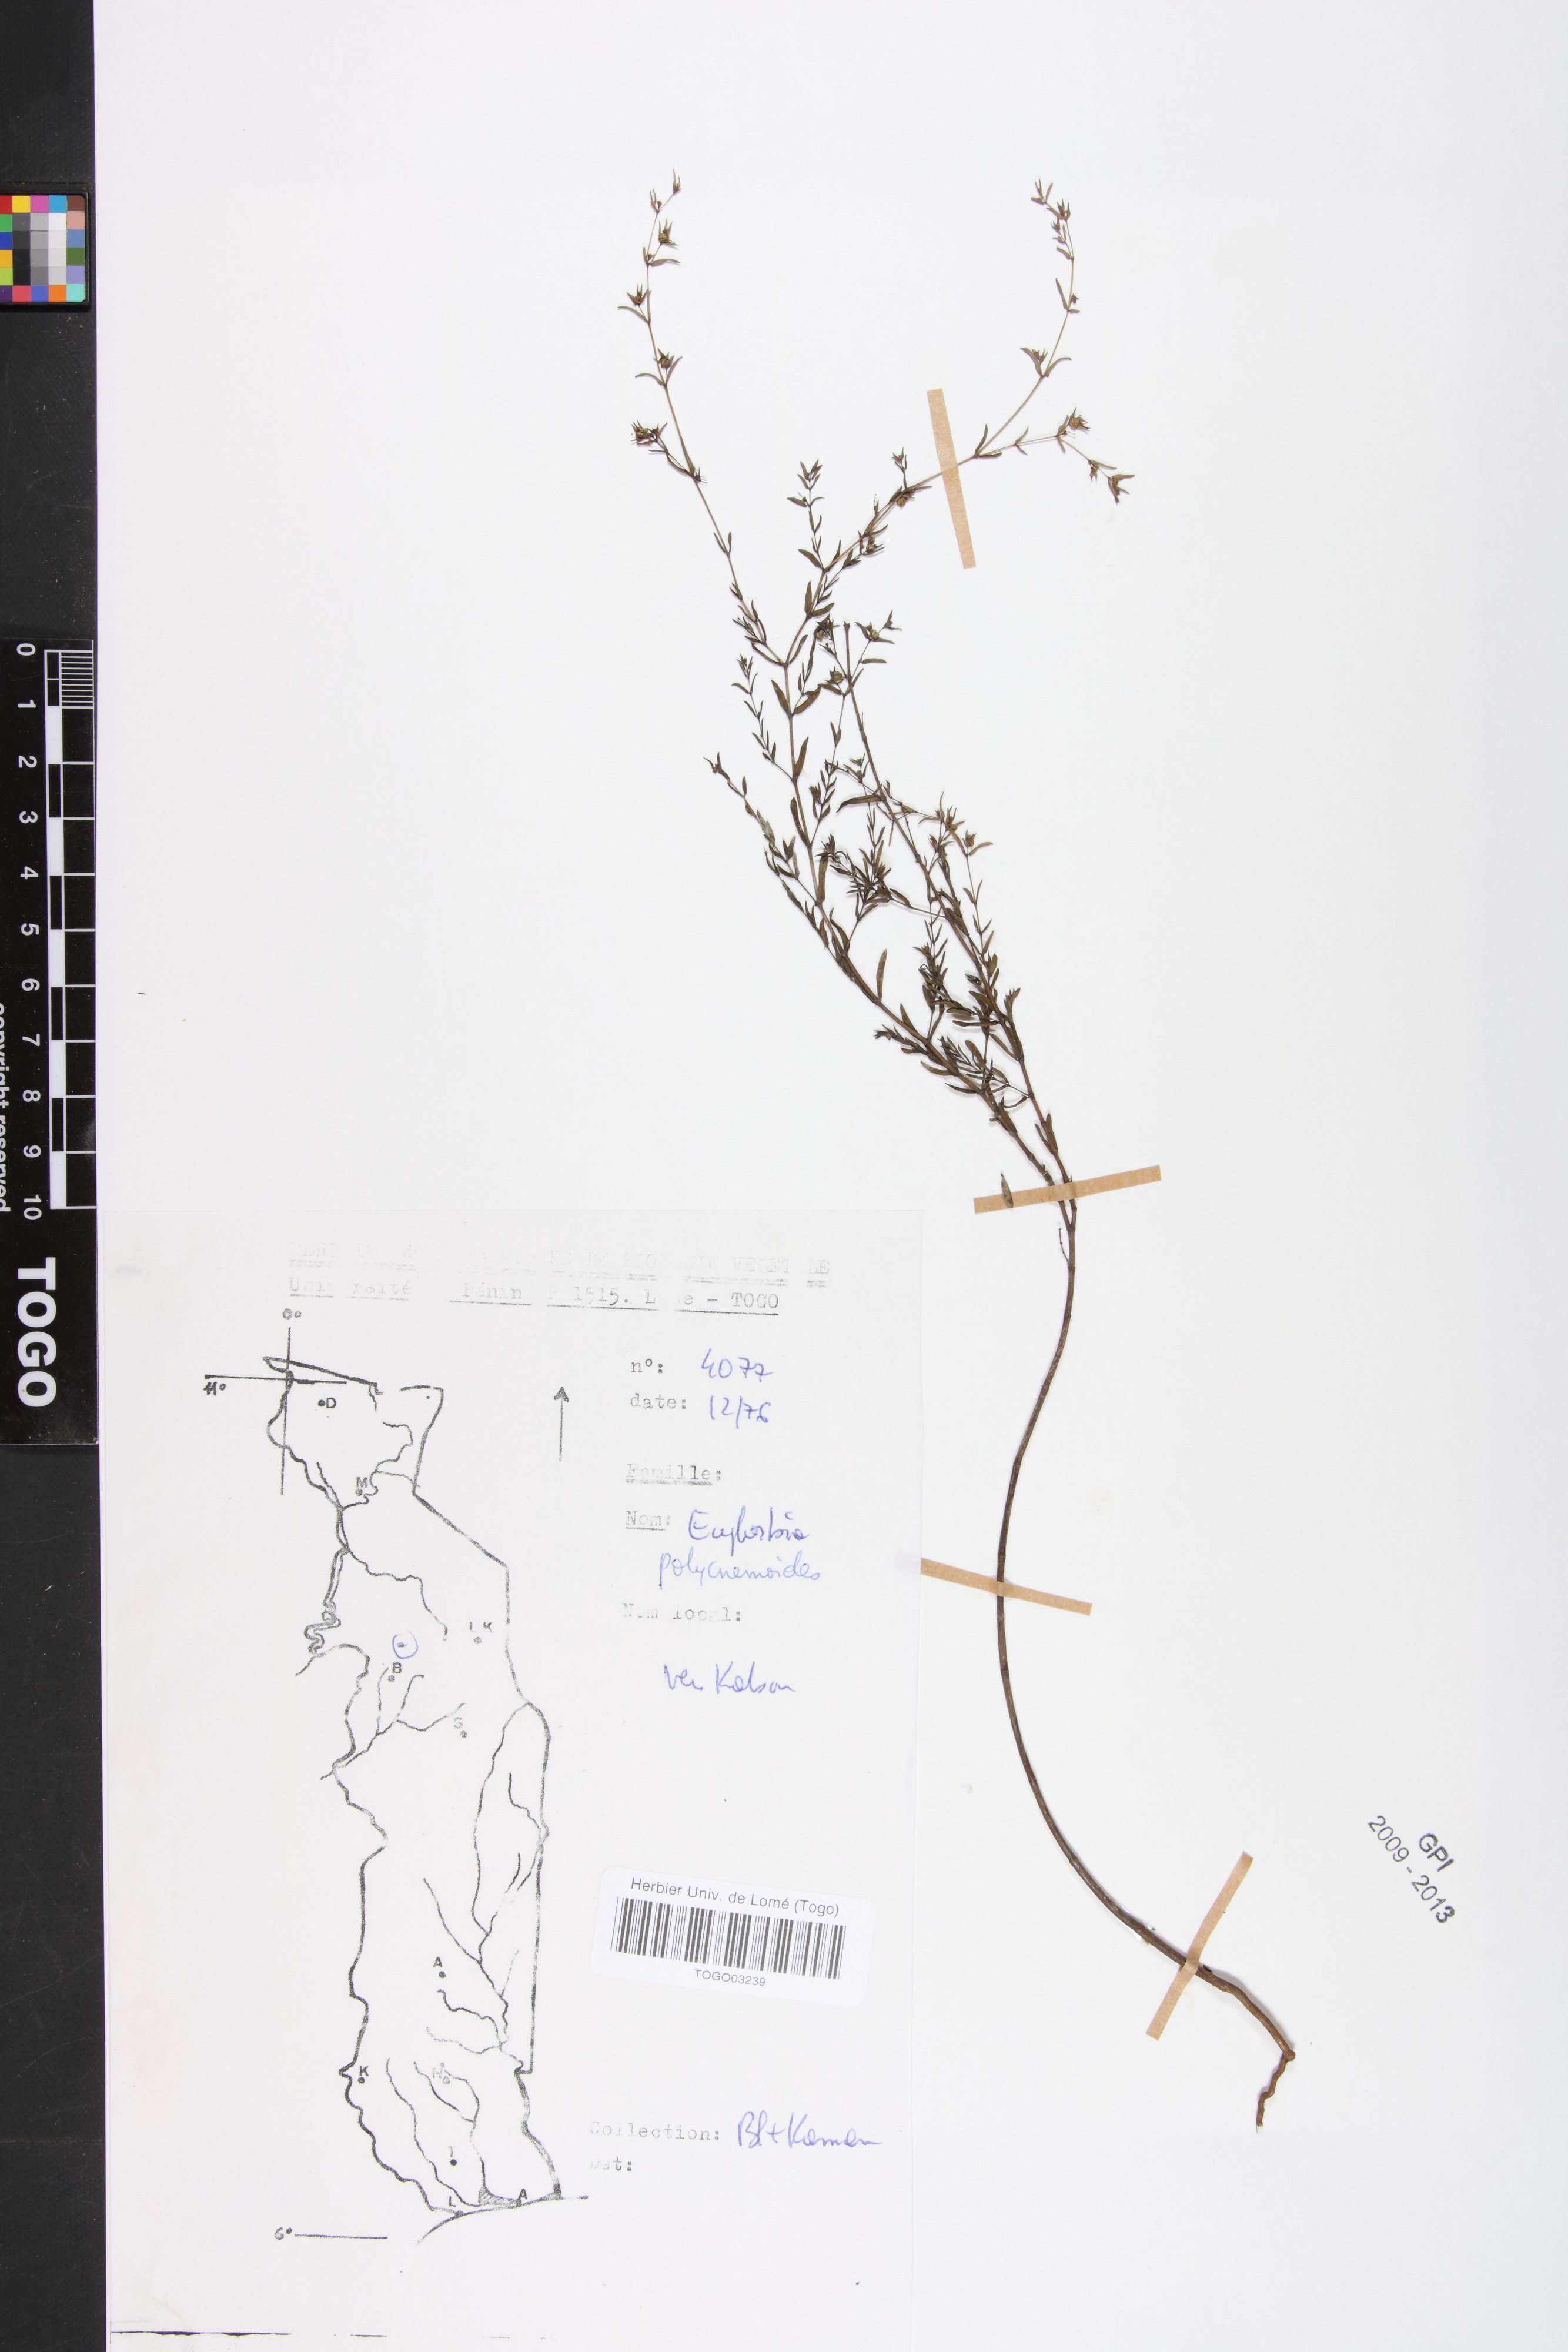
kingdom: Plantae
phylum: Tracheophyta
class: Magnoliopsida
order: Malpighiales
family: Euphorbiaceae
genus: Euphorbia
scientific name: Euphorbia polycnemoides
